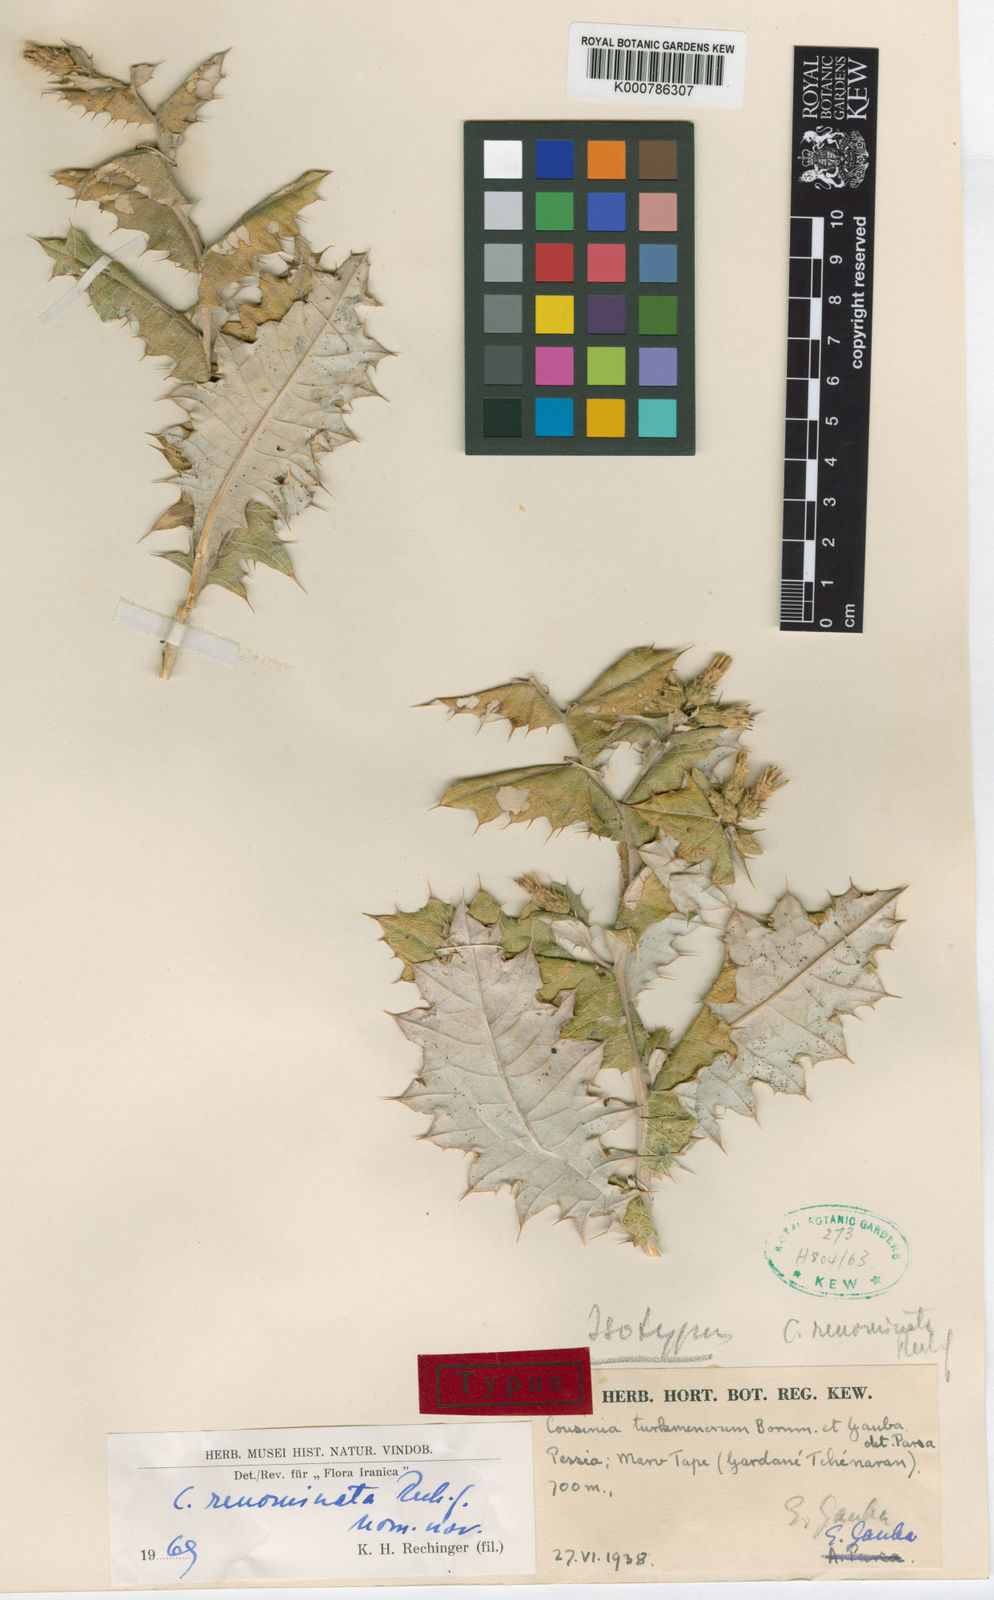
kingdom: Plantae
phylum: Tracheophyta
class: Magnoliopsida
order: Asterales
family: Asteraceae
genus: Cousinia
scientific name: Cousinia renominata
